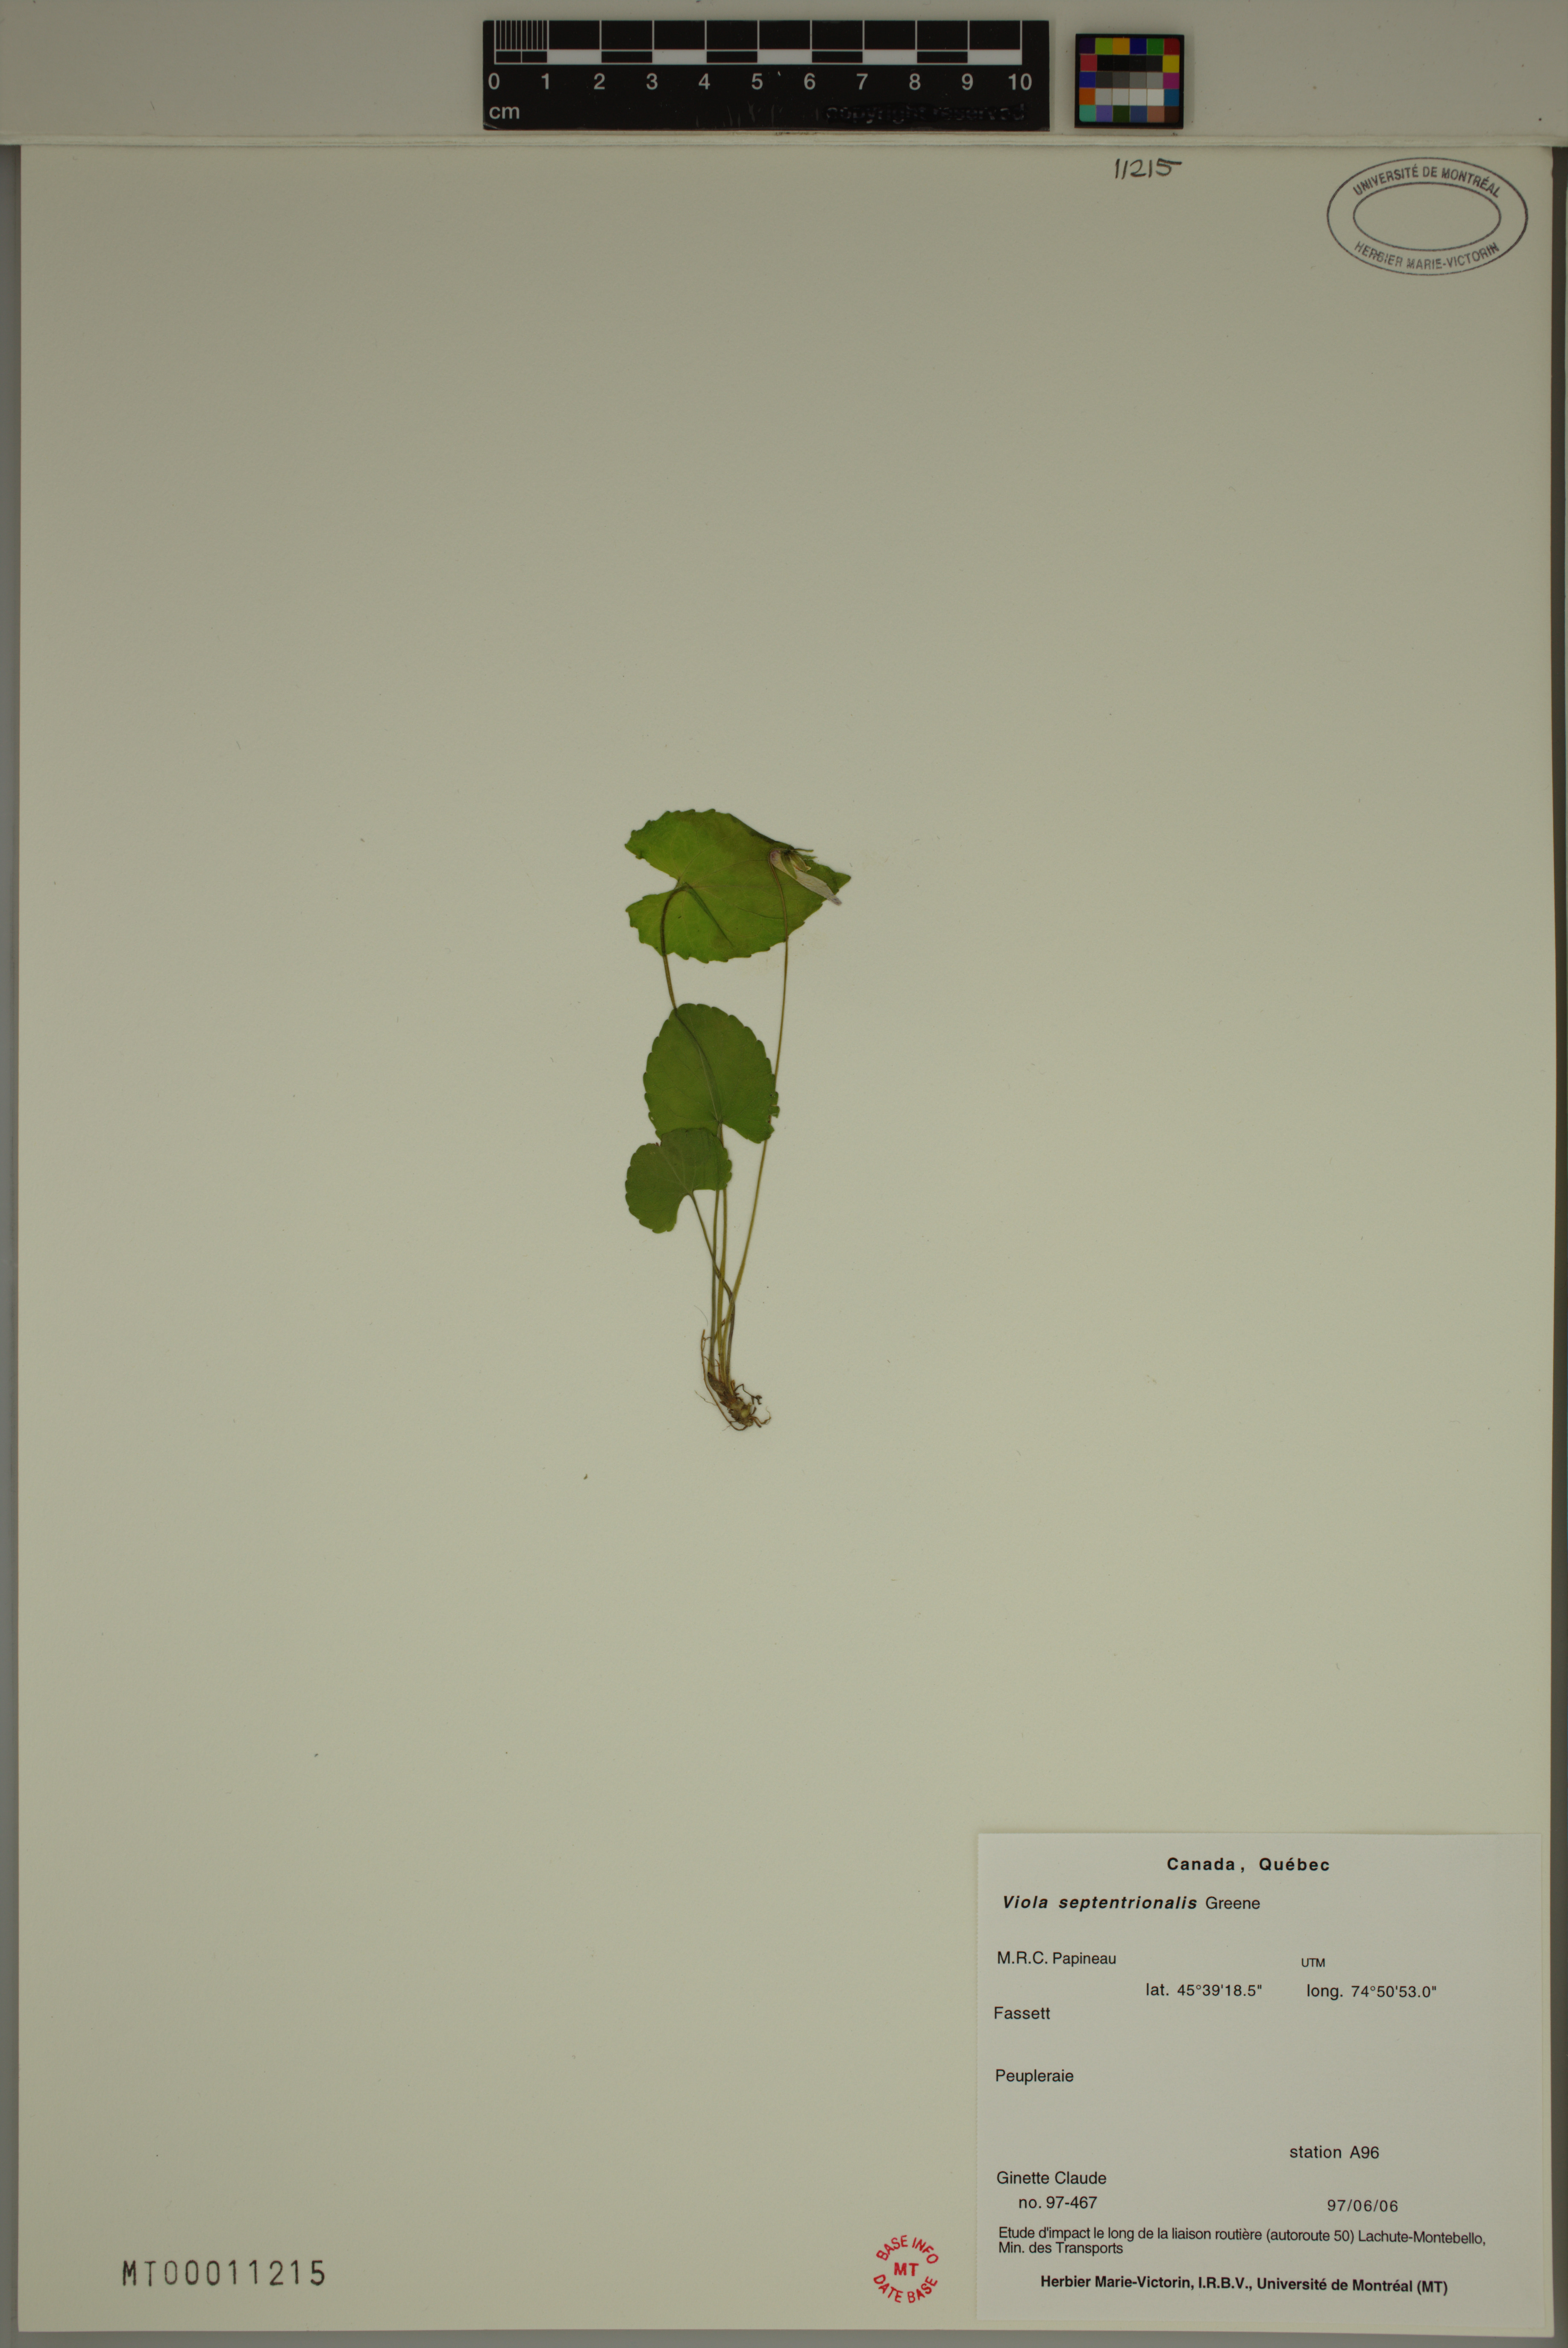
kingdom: Plantae
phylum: Tracheophyta
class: Magnoliopsida
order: Malpighiales
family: Violaceae
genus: Viola
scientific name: Viola sororia
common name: Dooryard violet
